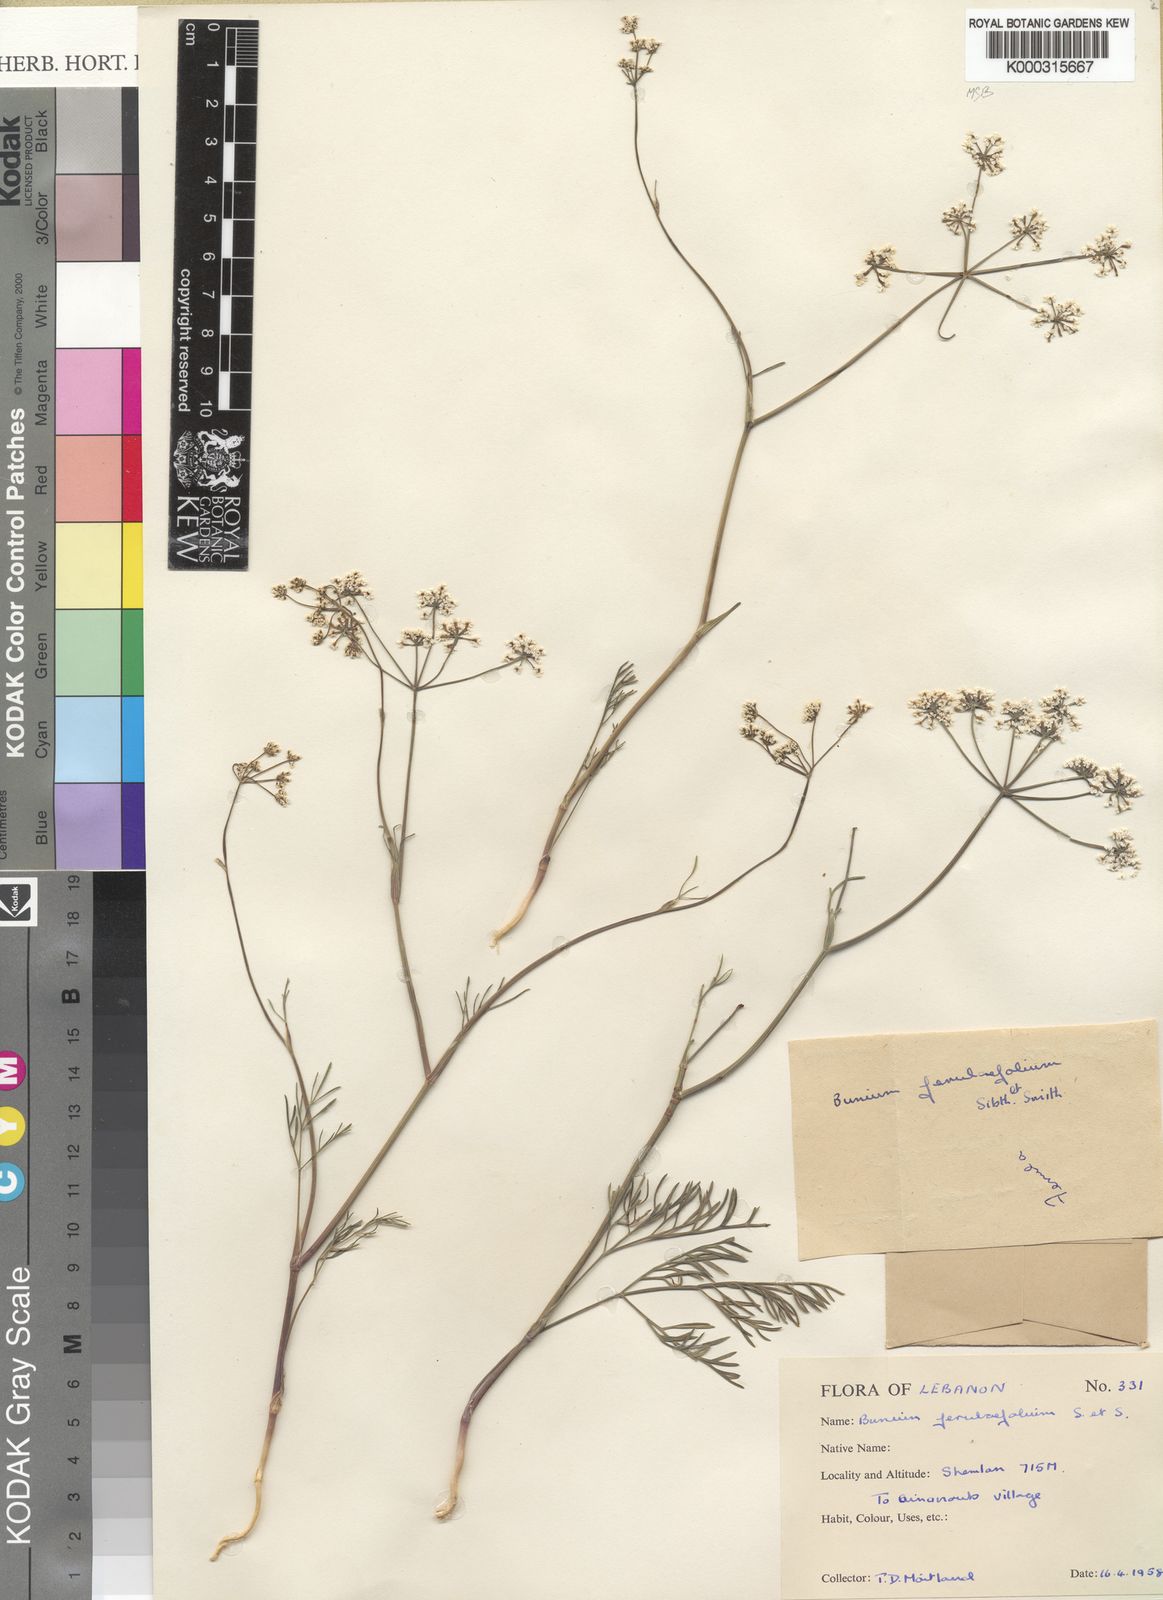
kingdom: Plantae
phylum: Tracheophyta
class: Magnoliopsida
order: Apiales
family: Apiaceae
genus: Bunium
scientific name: Bunium ferulaceum
